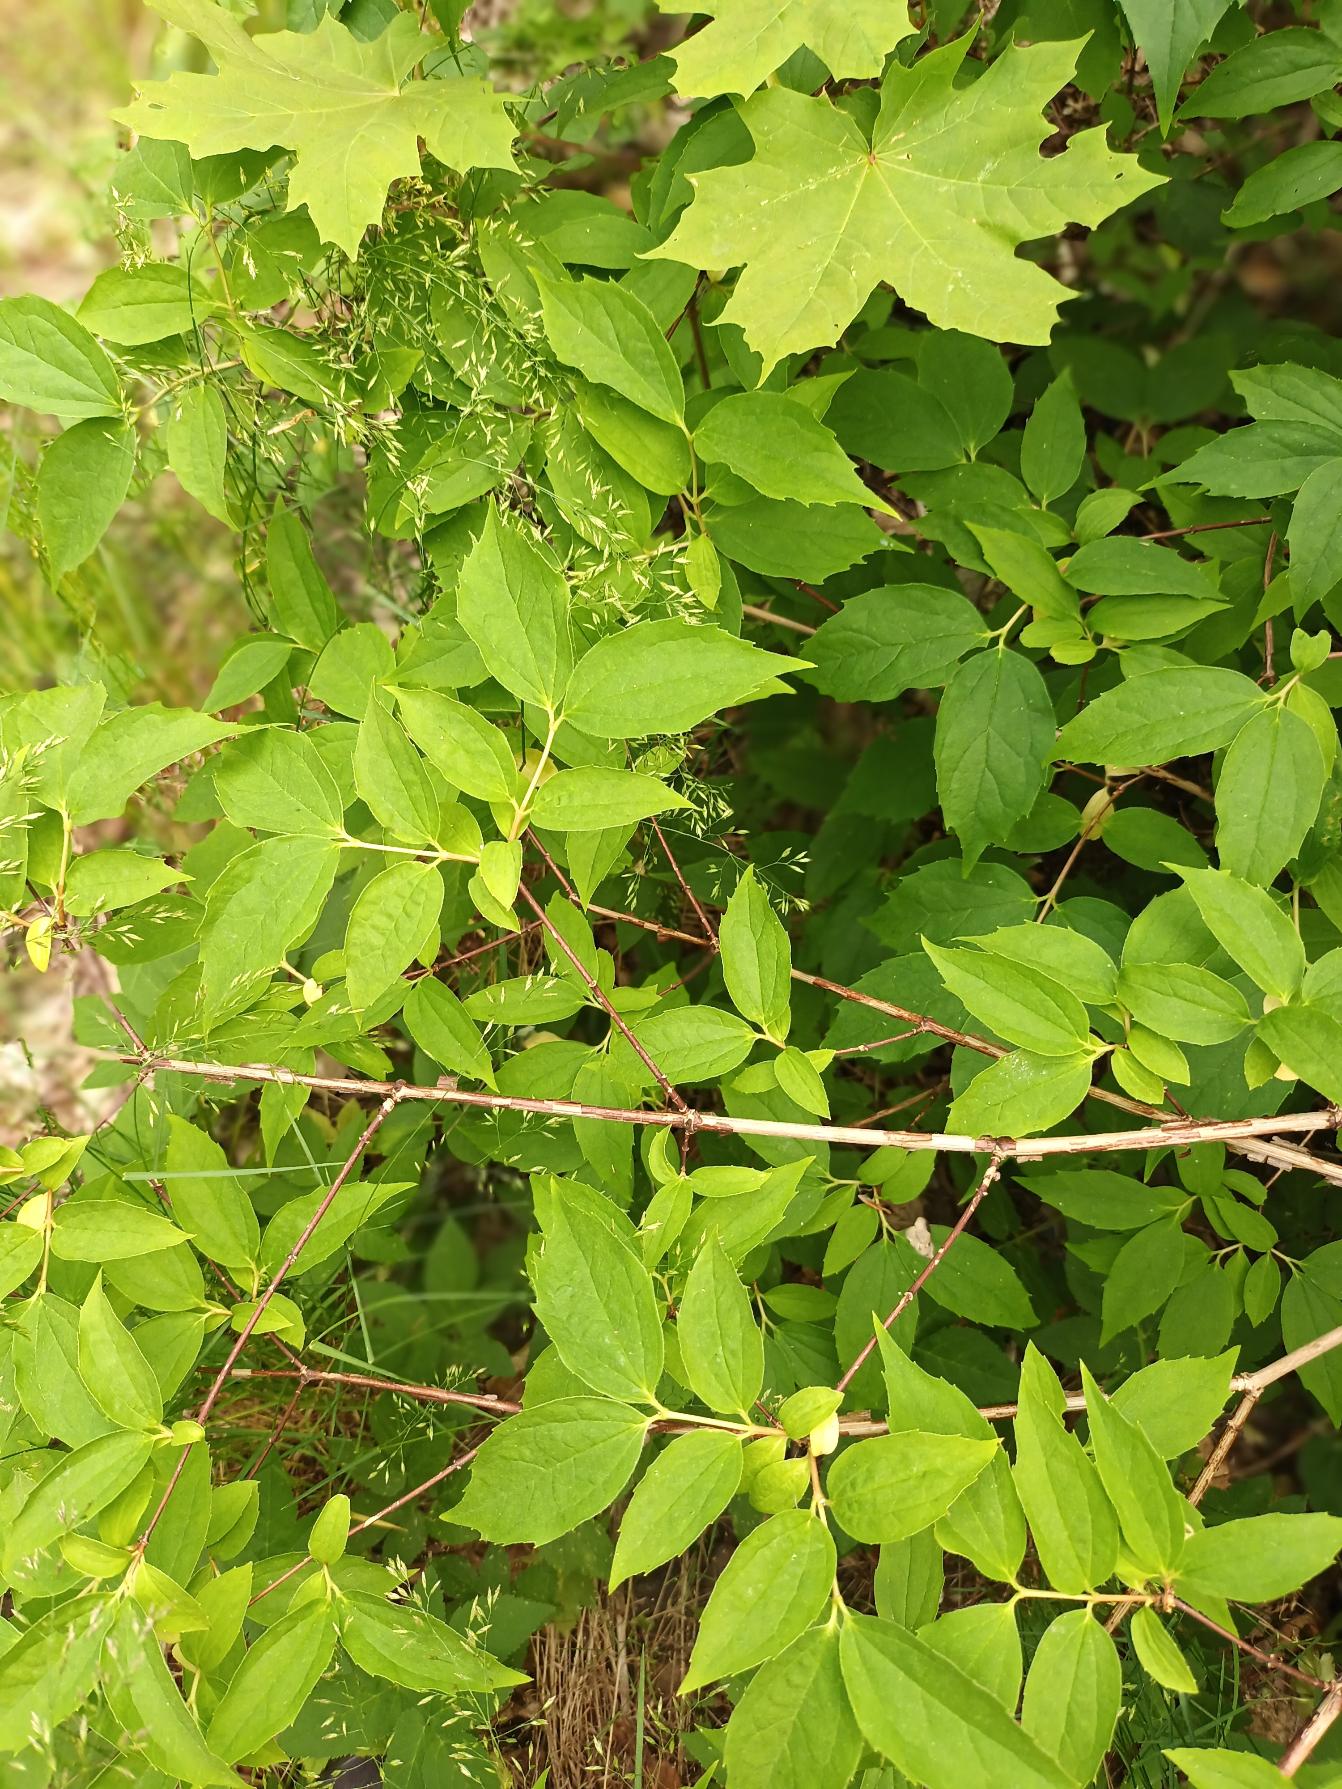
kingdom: Plantae
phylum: Tracheophyta
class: Magnoliopsida
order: Cornales
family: Hydrangeaceae
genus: Philadelphus
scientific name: Philadelphus coronarius
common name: Almindelig pibeved
